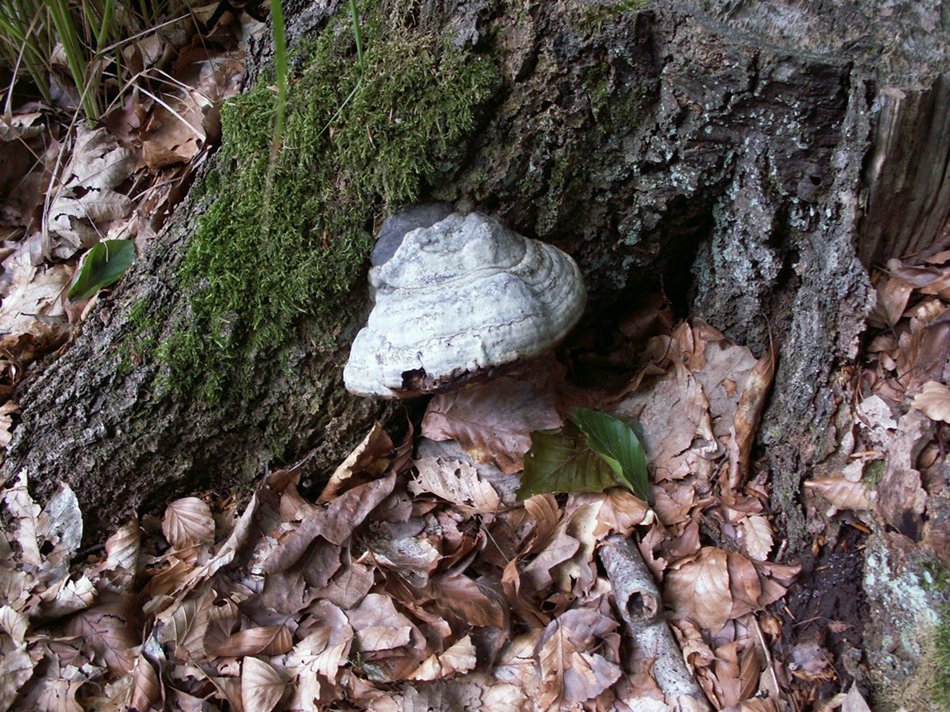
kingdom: Fungi
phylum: Basidiomycota
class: Agaricomycetes
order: Polyporales
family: Polyporaceae
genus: Fomes
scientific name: Fomes fomentarius
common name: tøndersvamp
